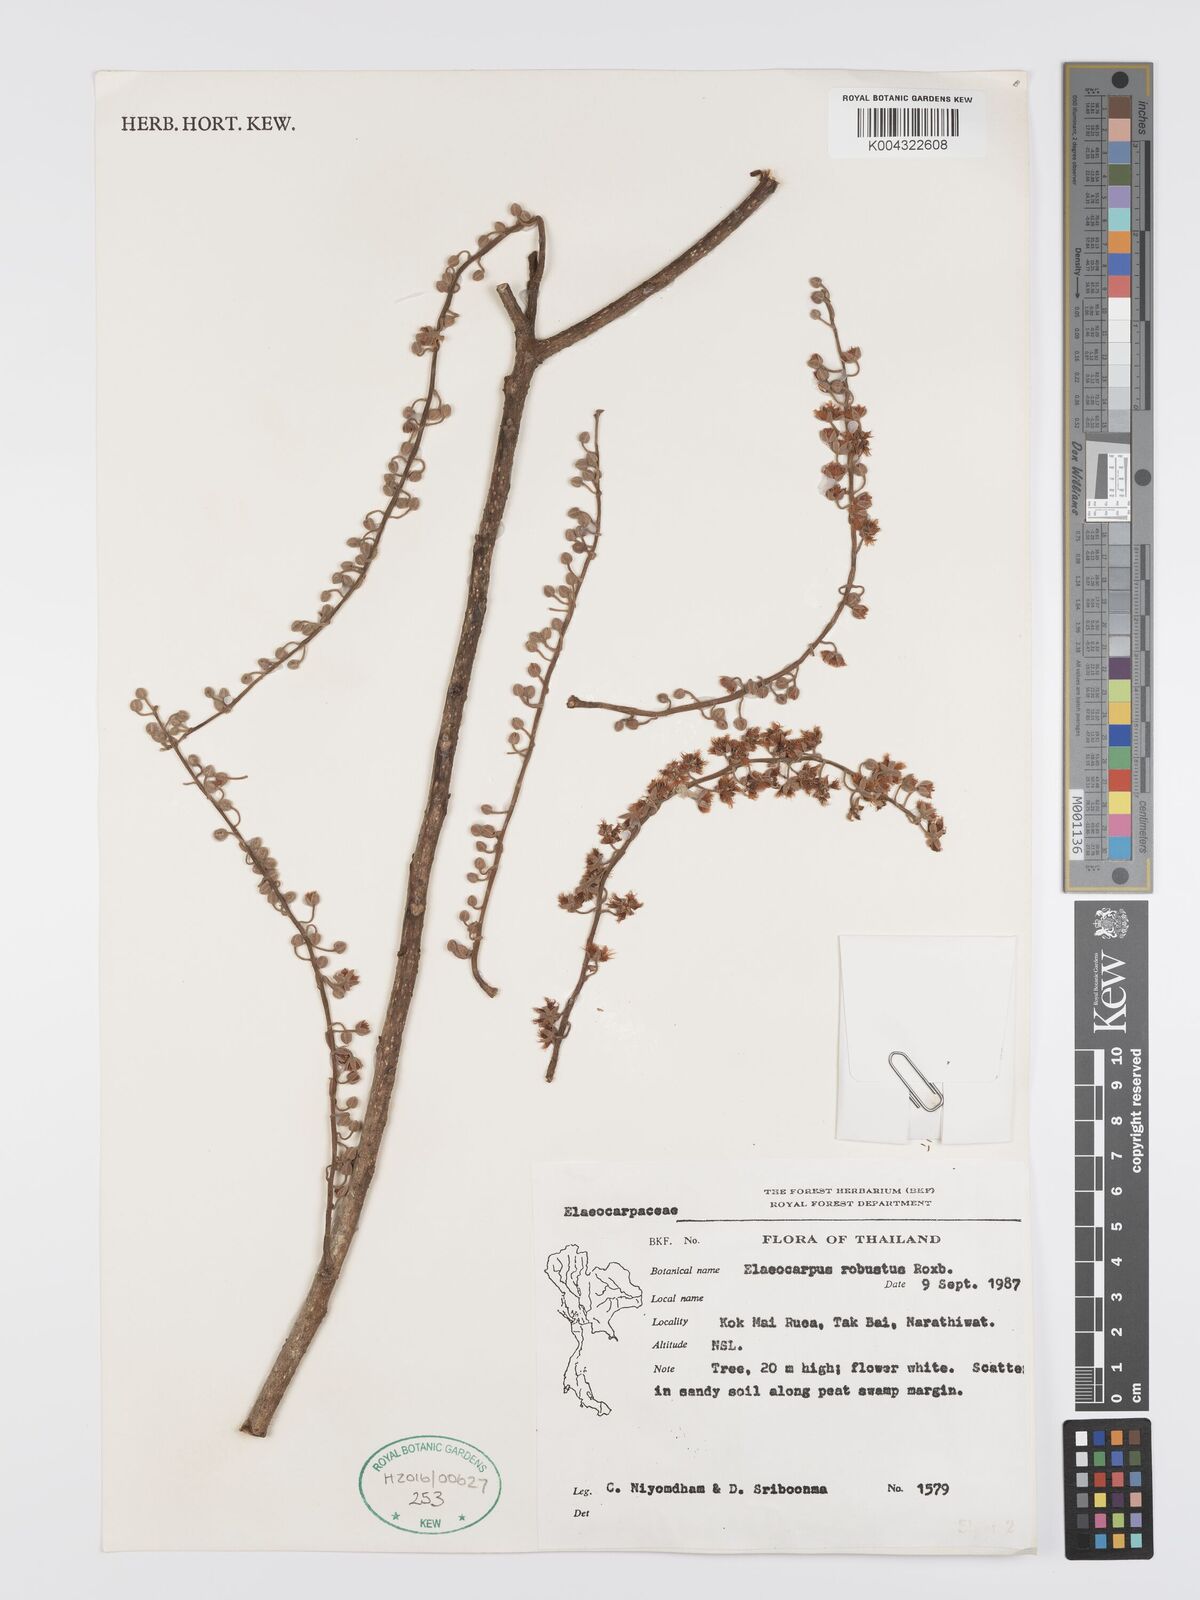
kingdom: Plantae
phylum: Tracheophyta
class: Magnoliopsida
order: Oxalidales
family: Elaeocarpaceae
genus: Elaeocarpus
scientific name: Elaeocarpus robustus
